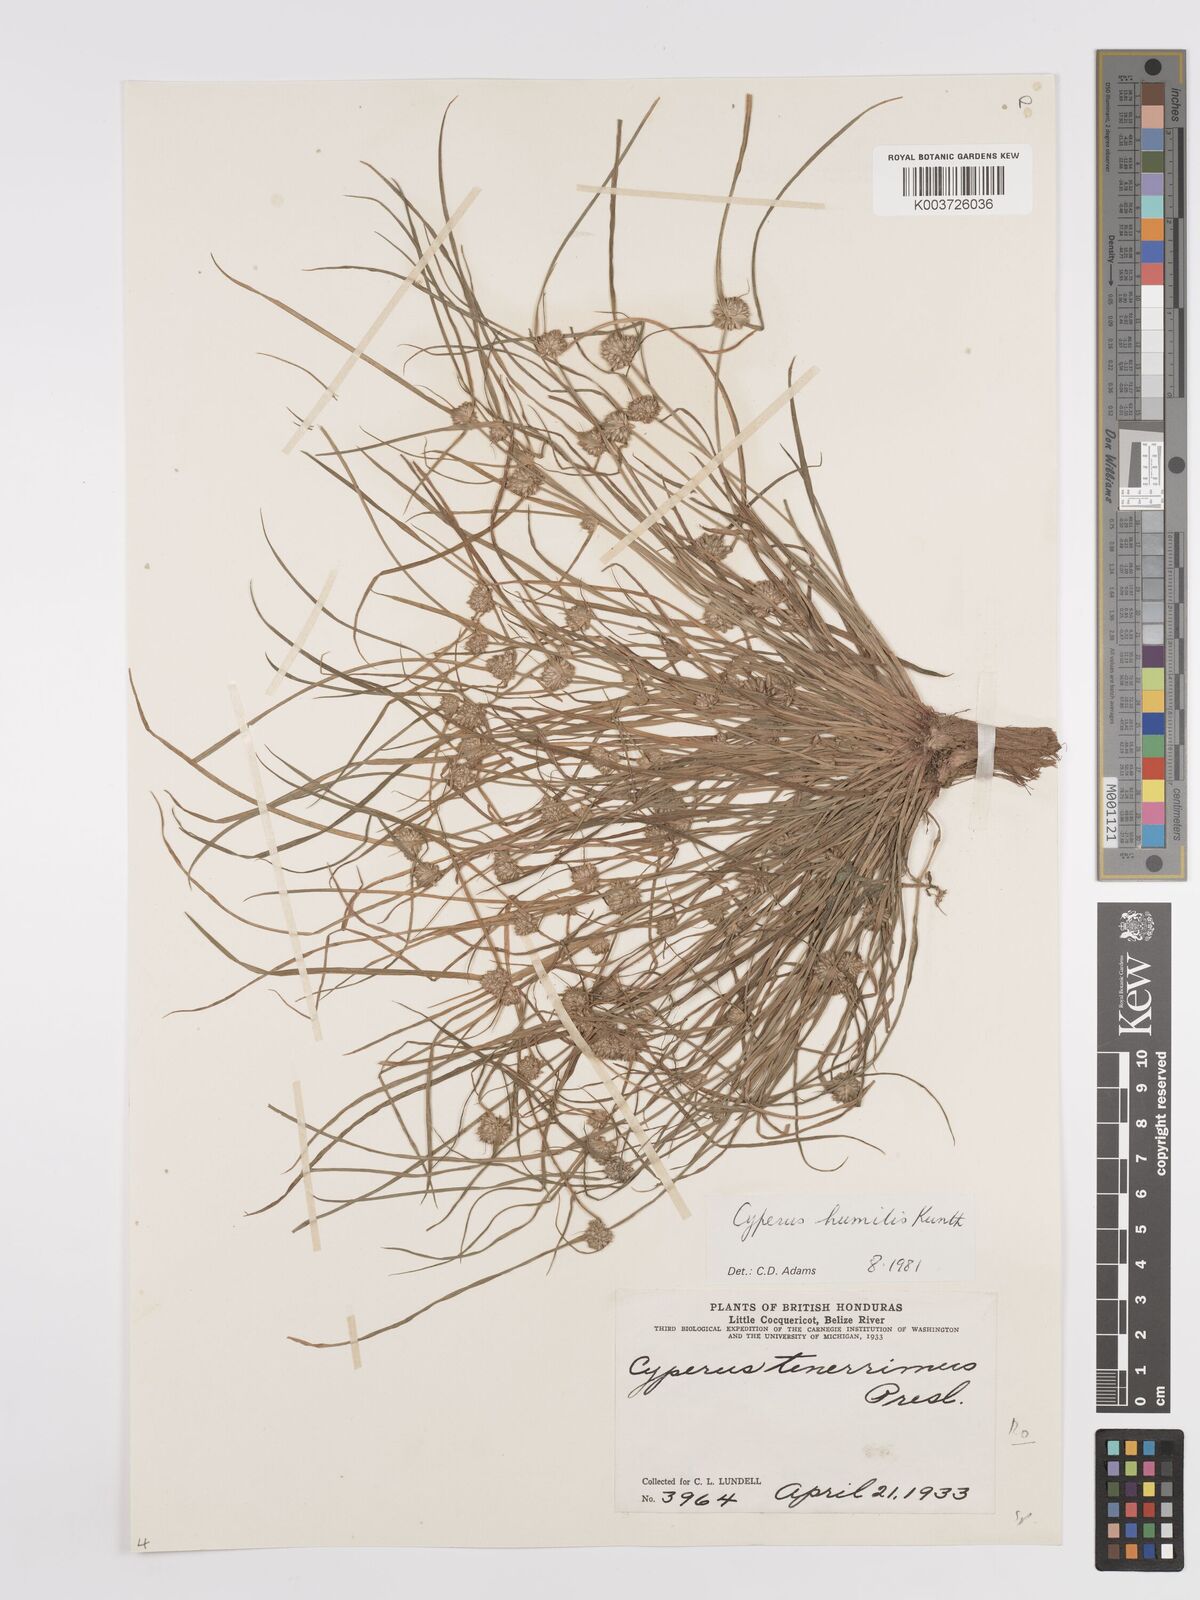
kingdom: Plantae
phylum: Tracheophyta
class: Liliopsida
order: Poales
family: Cyperaceae
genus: Cyperus
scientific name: Cyperus humilis
